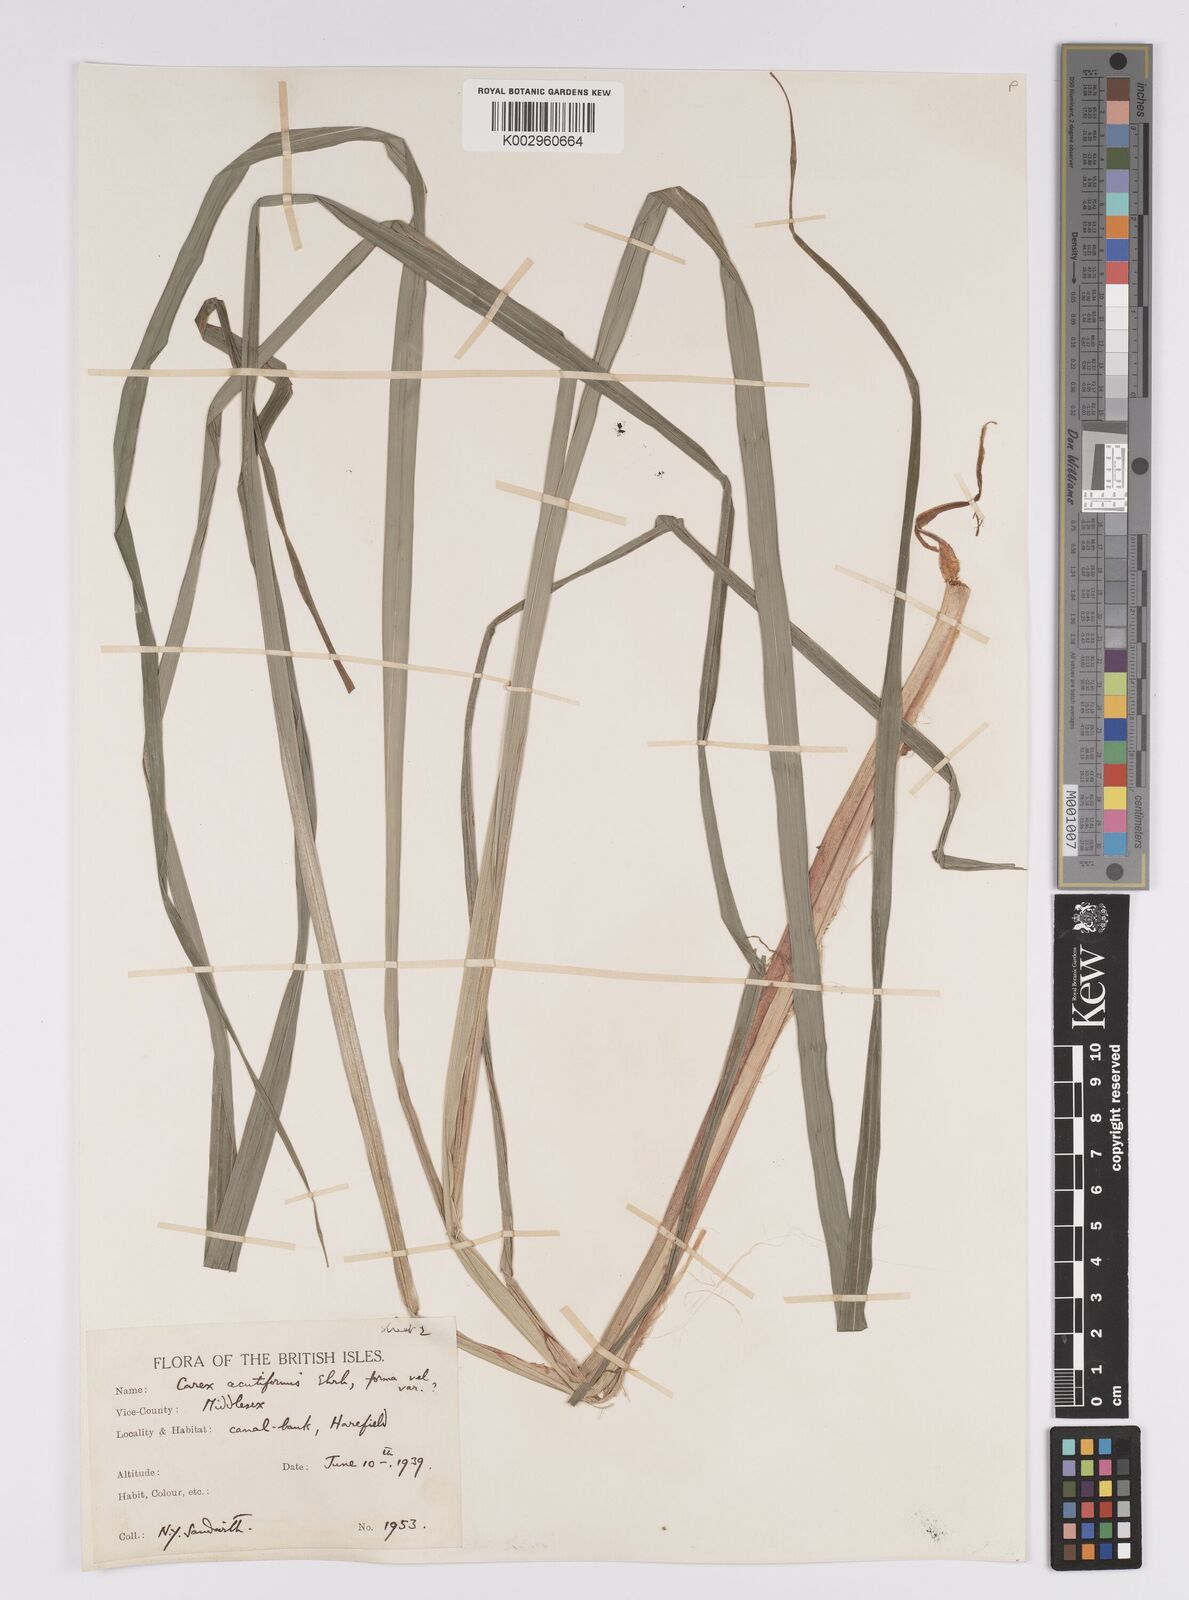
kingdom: Plantae
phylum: Tracheophyta
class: Liliopsida
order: Poales
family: Cyperaceae
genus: Carex
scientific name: Carex acutiformis
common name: Lesser pond-sedge
